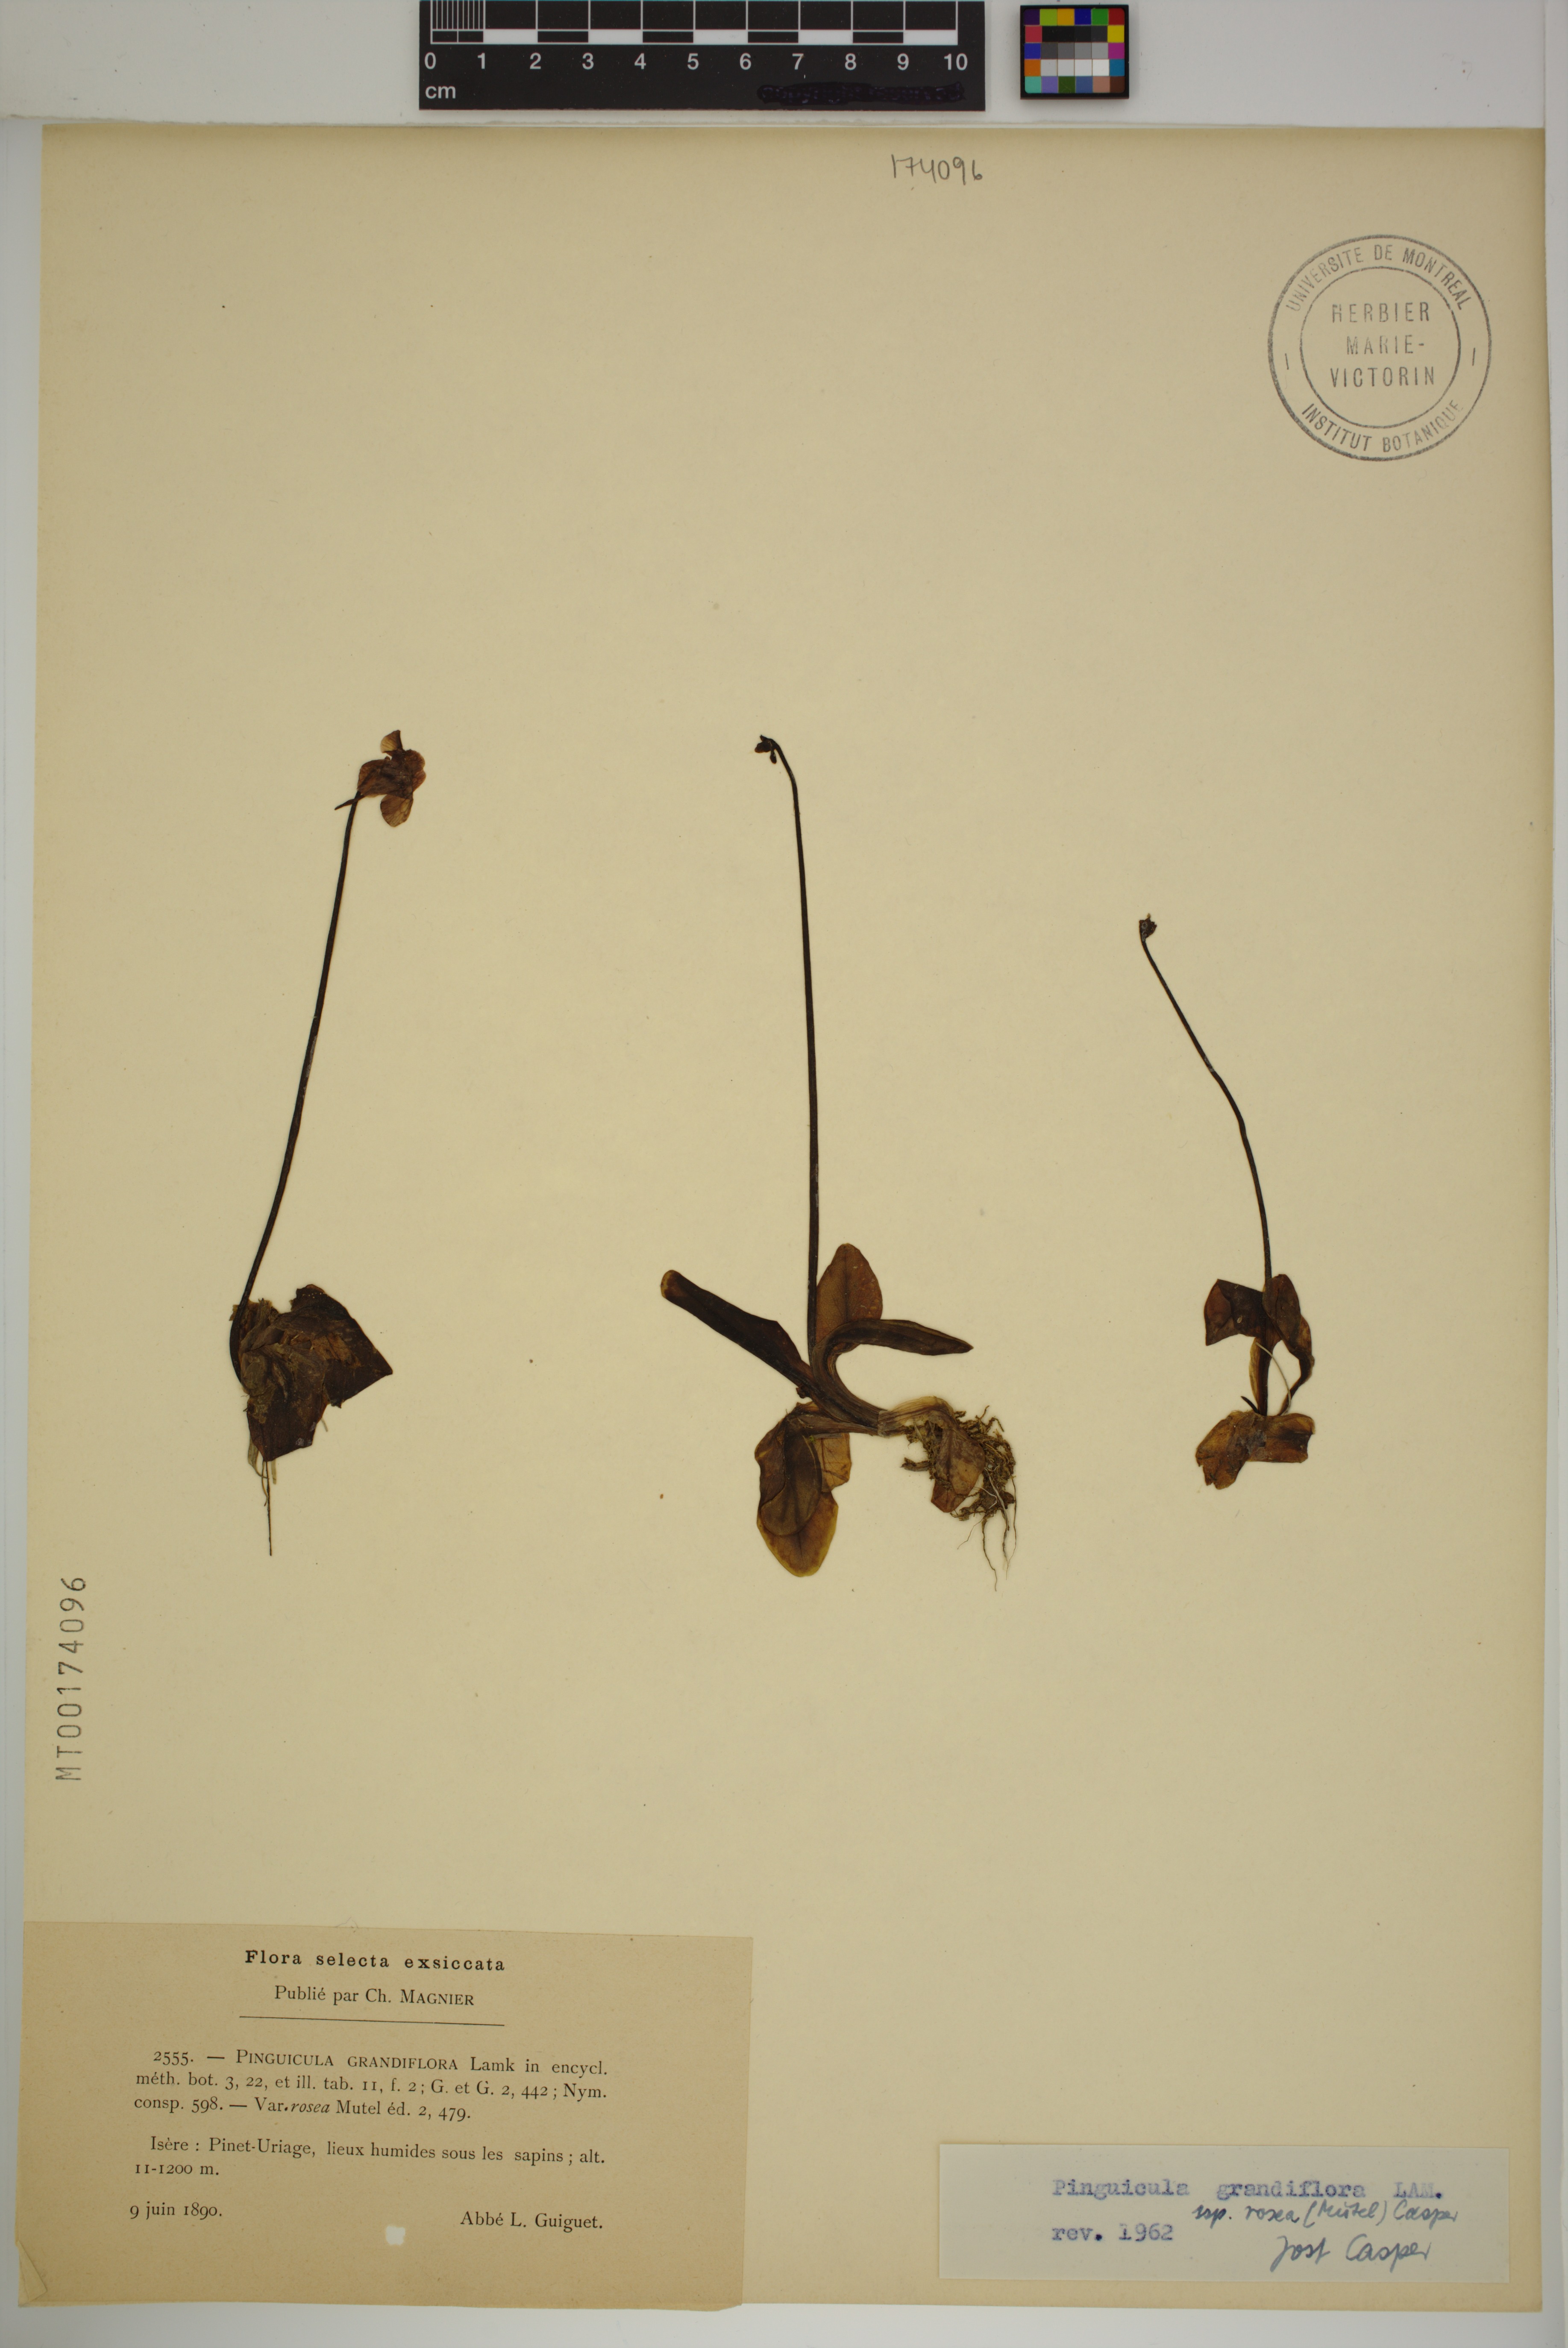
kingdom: Plantae
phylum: Tracheophyta
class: Magnoliopsida
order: Lamiales
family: Lentibulariaceae
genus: Pinguicula
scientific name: Pinguicula grandiflora
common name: Large-flowered butterwort
